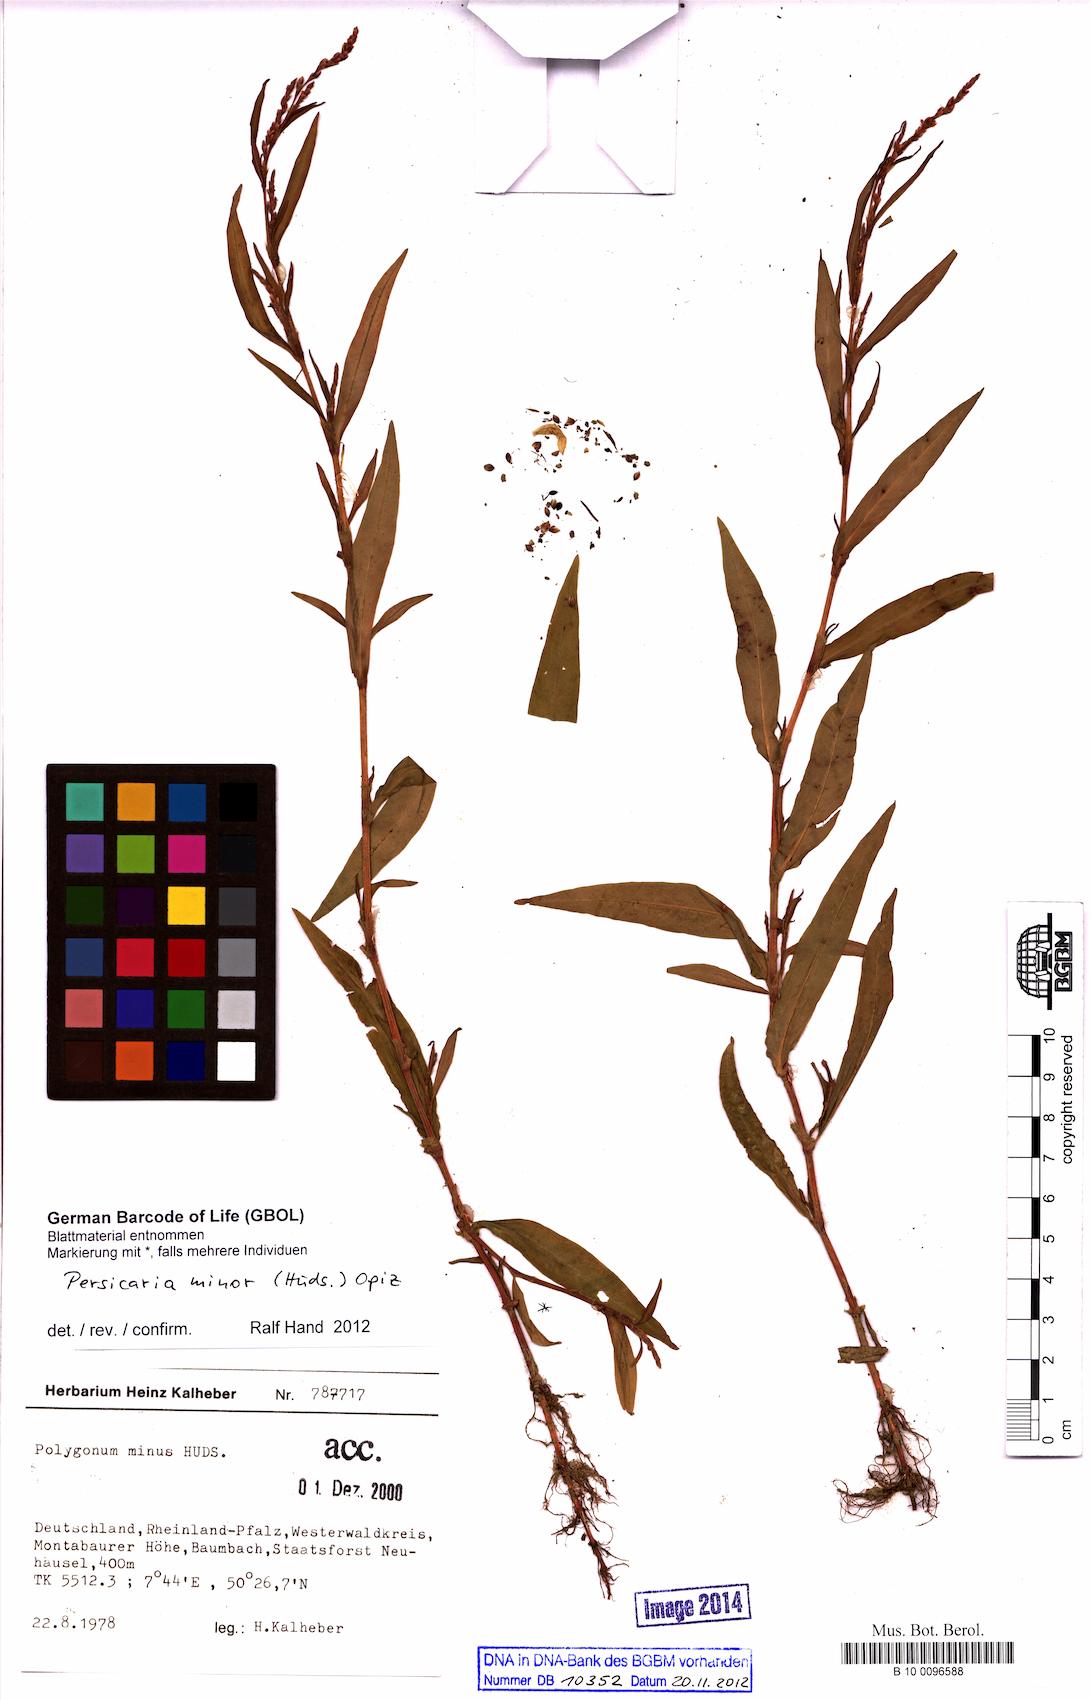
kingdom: Plantae
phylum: Tracheophyta
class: Magnoliopsida
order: Caryophyllales
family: Polygonaceae
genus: Persicaria
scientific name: Persicaria minor
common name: Small water-pepper
